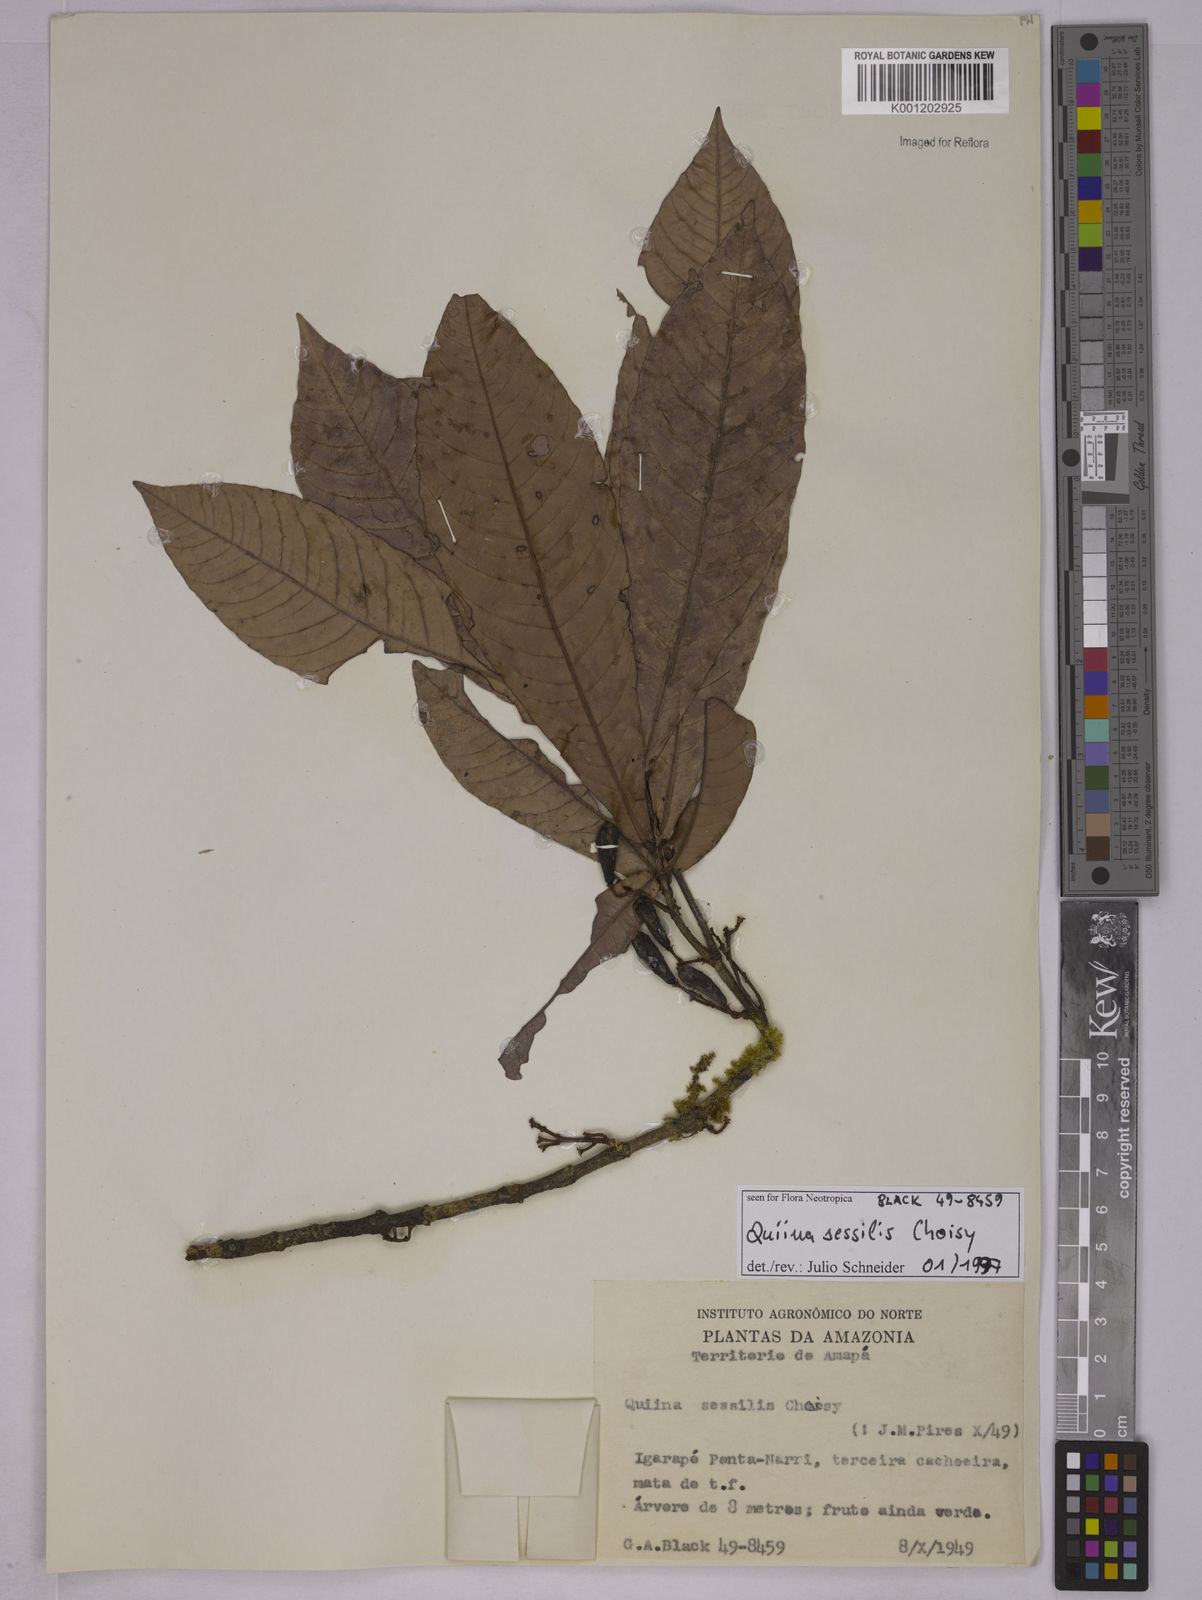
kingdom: Plantae
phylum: Tracheophyta
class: Magnoliopsida
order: Malpighiales
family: Quiinaceae
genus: Quiina
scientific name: Quiina sessilis
